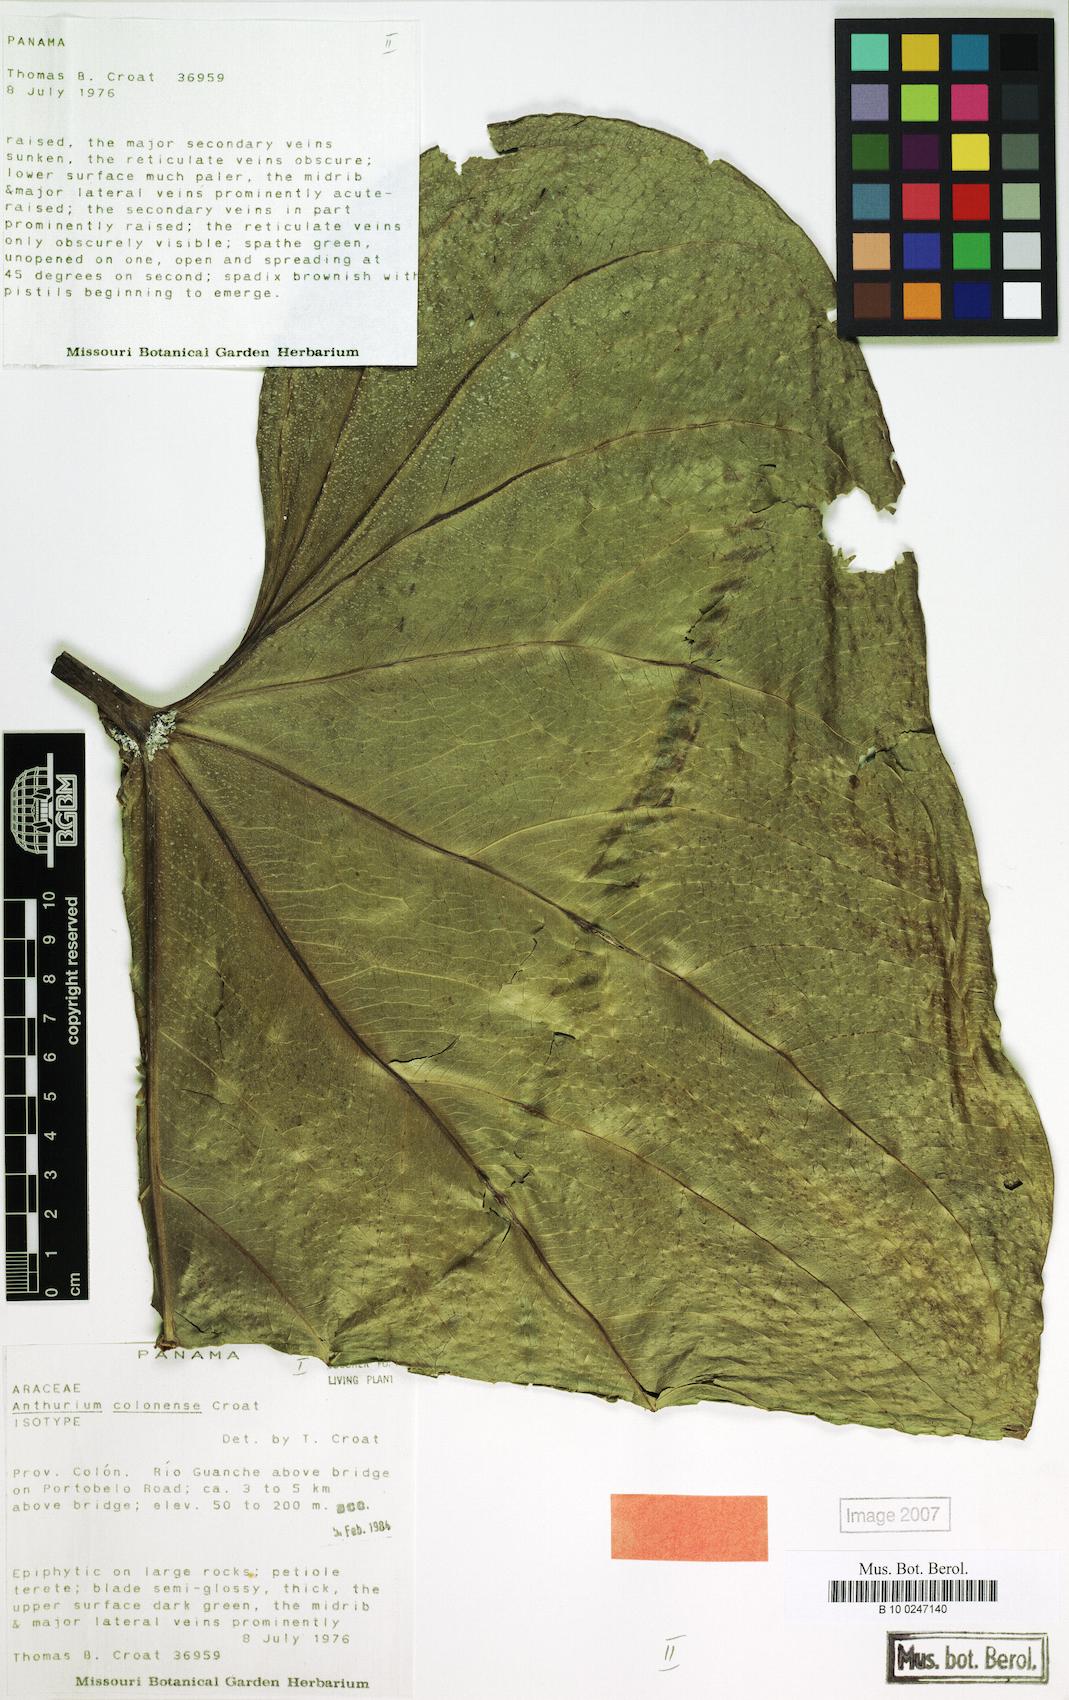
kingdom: Plantae
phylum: Tracheophyta
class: Liliopsida
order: Alismatales
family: Araceae
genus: Anthurium
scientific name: Anthurium colonense
